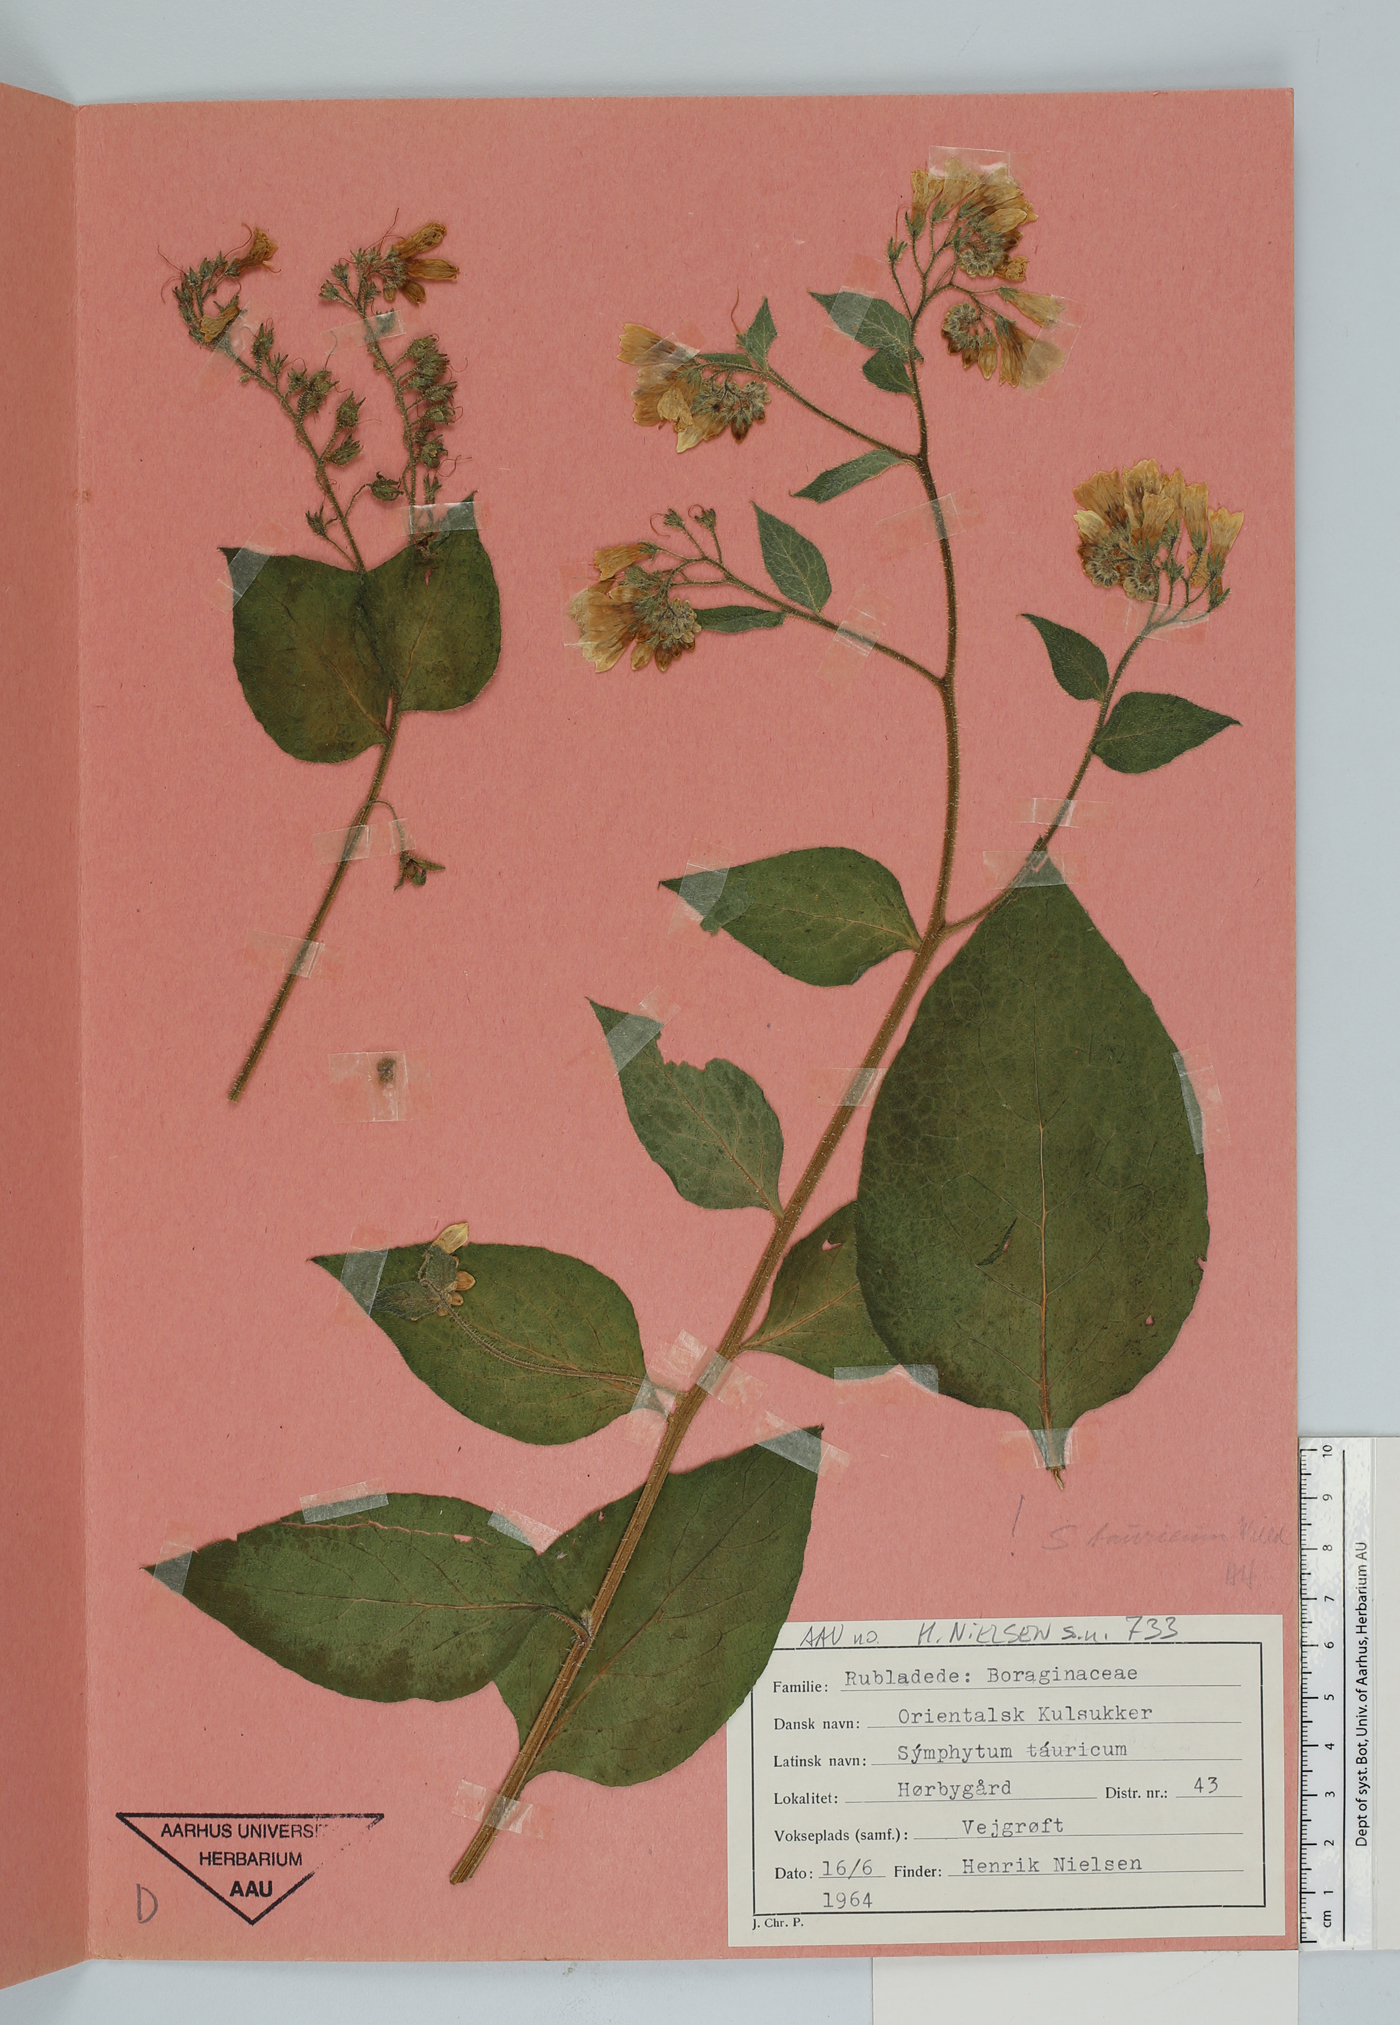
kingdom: Plantae
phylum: Tracheophyta
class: Magnoliopsida
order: Boraginales
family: Boraginaceae
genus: Symphytum
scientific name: Symphytum tauricum
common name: Crimean comfrey
